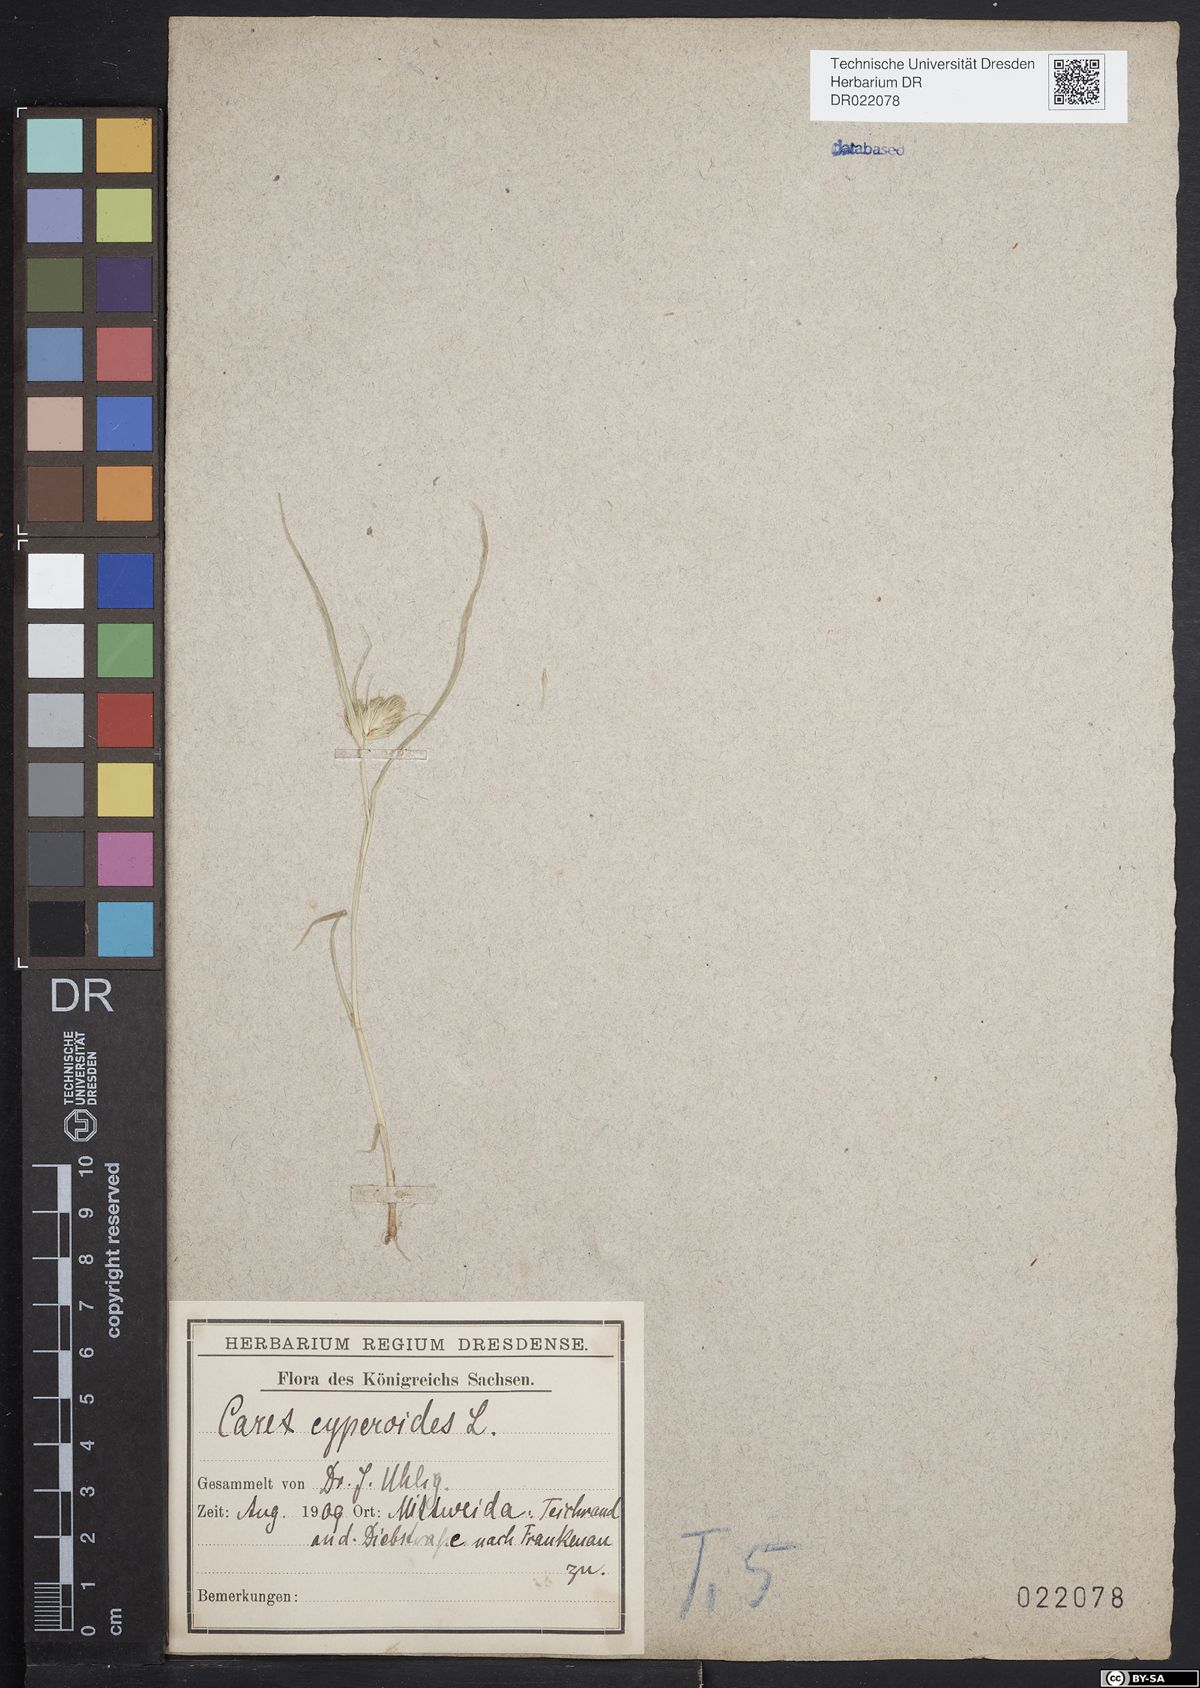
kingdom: Plantae
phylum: Tracheophyta
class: Liliopsida
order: Poales
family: Cyperaceae
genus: Carex
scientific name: Carex bohemica
